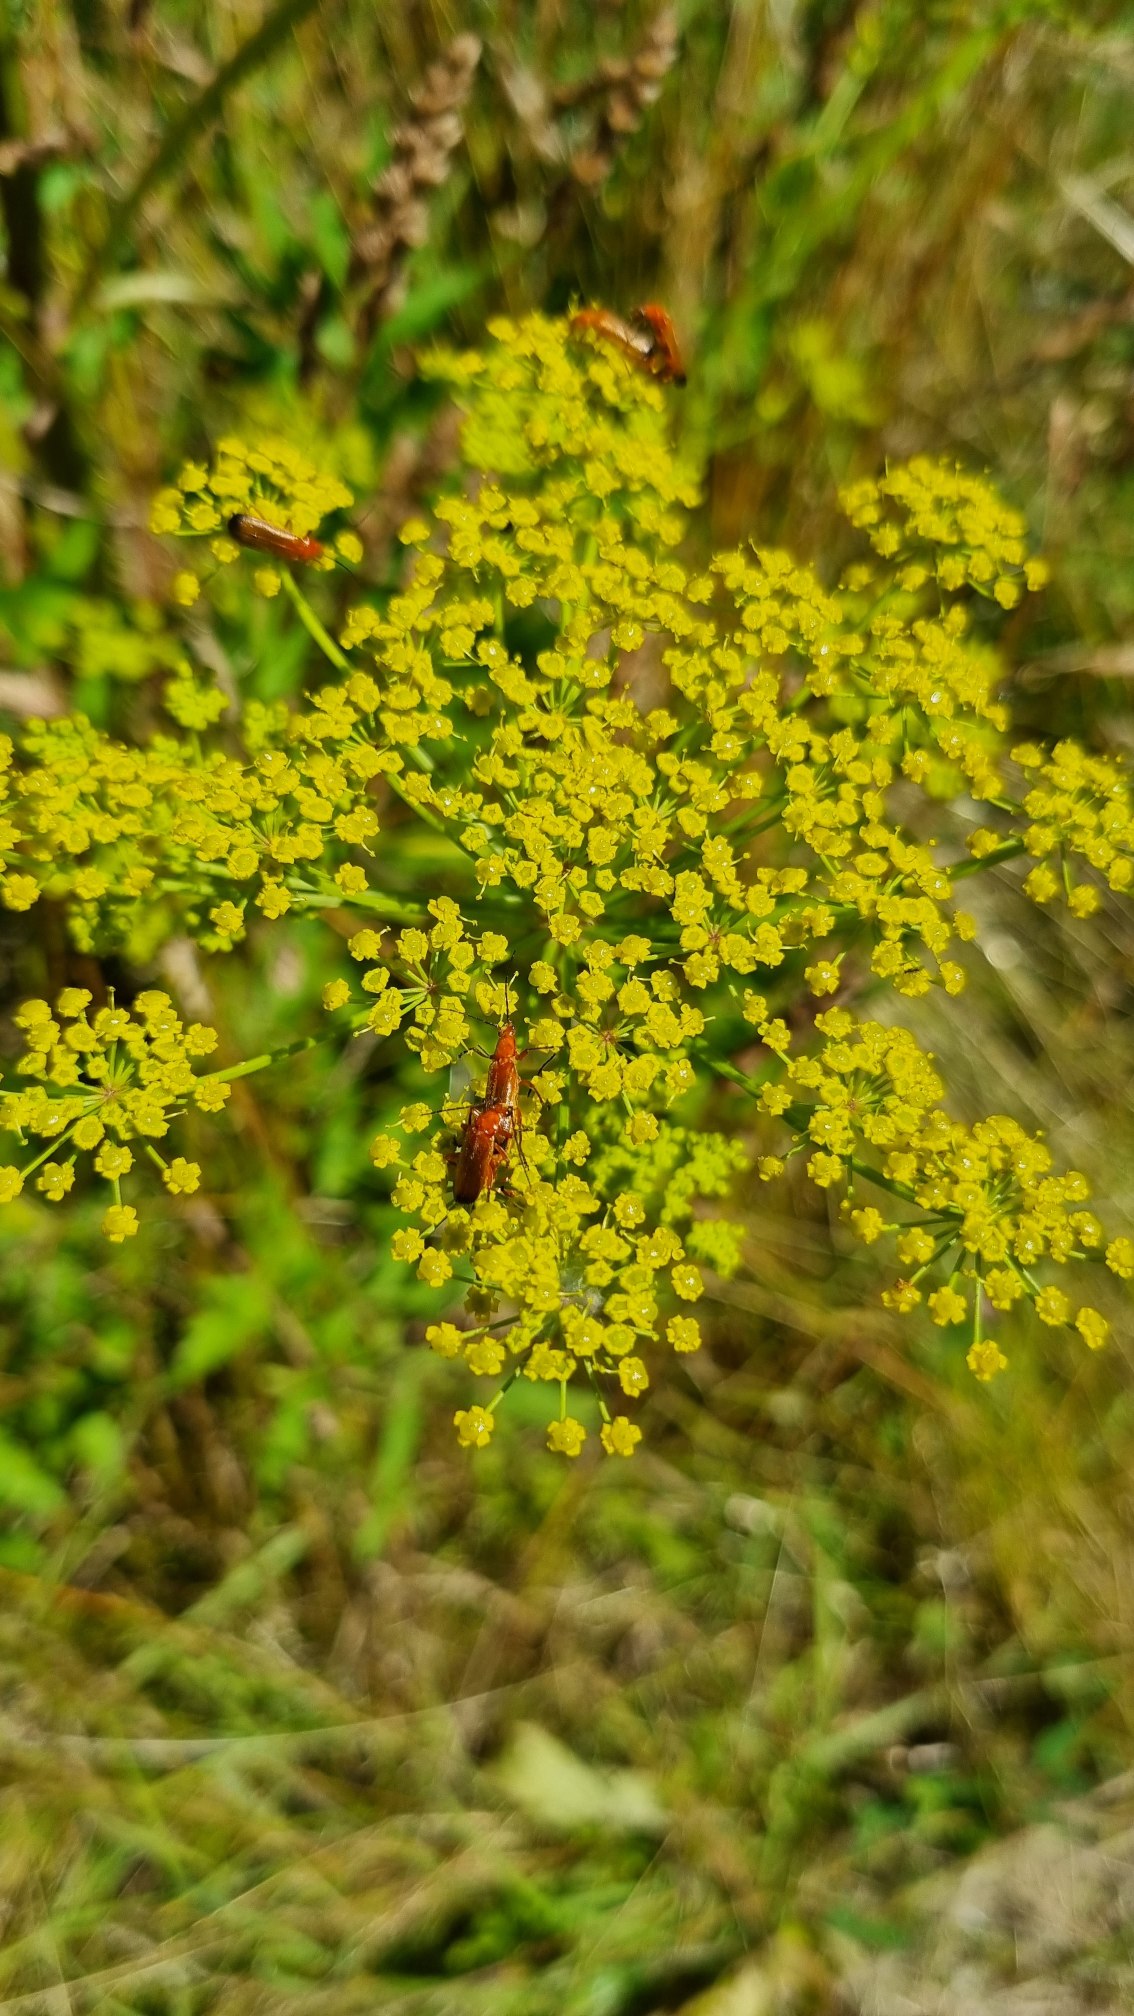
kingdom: Animalia
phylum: Arthropoda
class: Insecta
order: Coleoptera
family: Cantharidae
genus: Rhagonycha
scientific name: Rhagonycha fulva
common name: Præstebille
